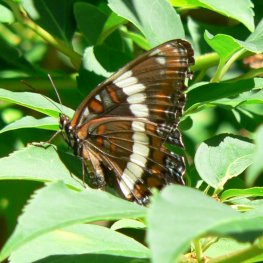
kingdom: Animalia
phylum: Arthropoda
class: Insecta
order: Lepidoptera
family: Nymphalidae
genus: Limenitis
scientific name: Limenitis arthemis
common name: Red-spotted Admiral
